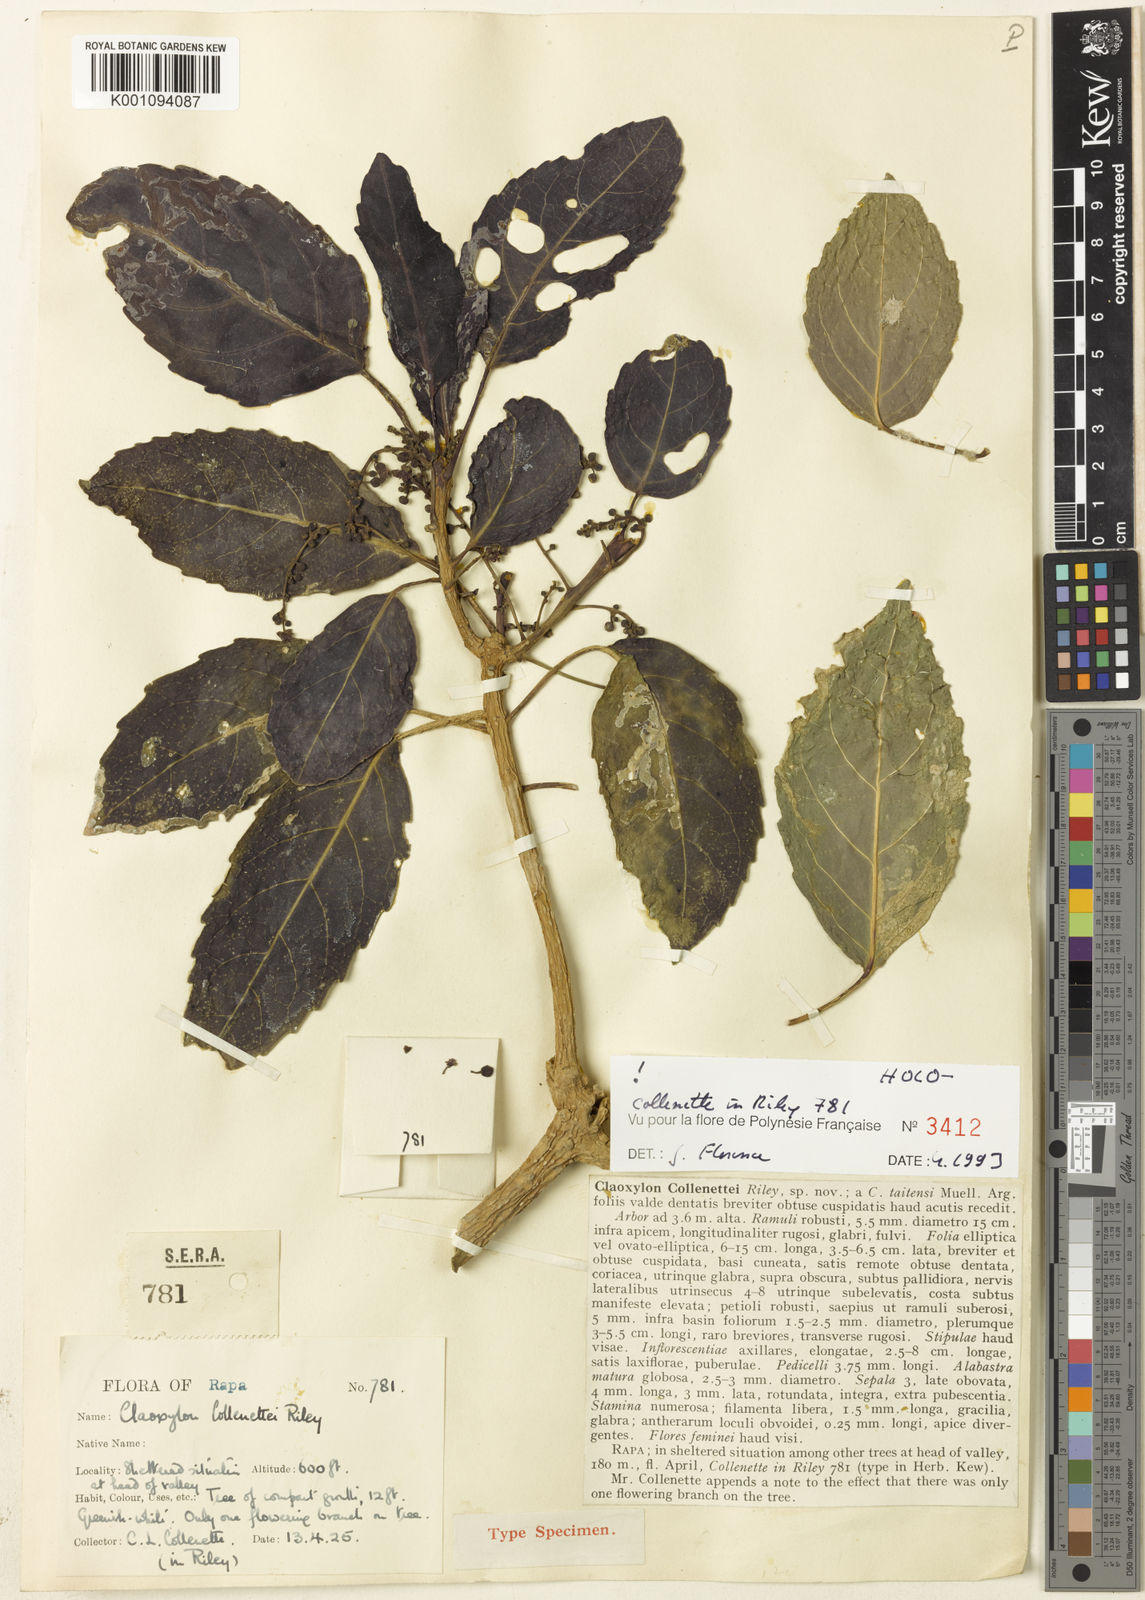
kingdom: Plantae
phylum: Tracheophyta
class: Magnoliopsida
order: Malpighiales
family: Euphorbiaceae
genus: Claoxylon
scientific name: Claoxylon collenettei
